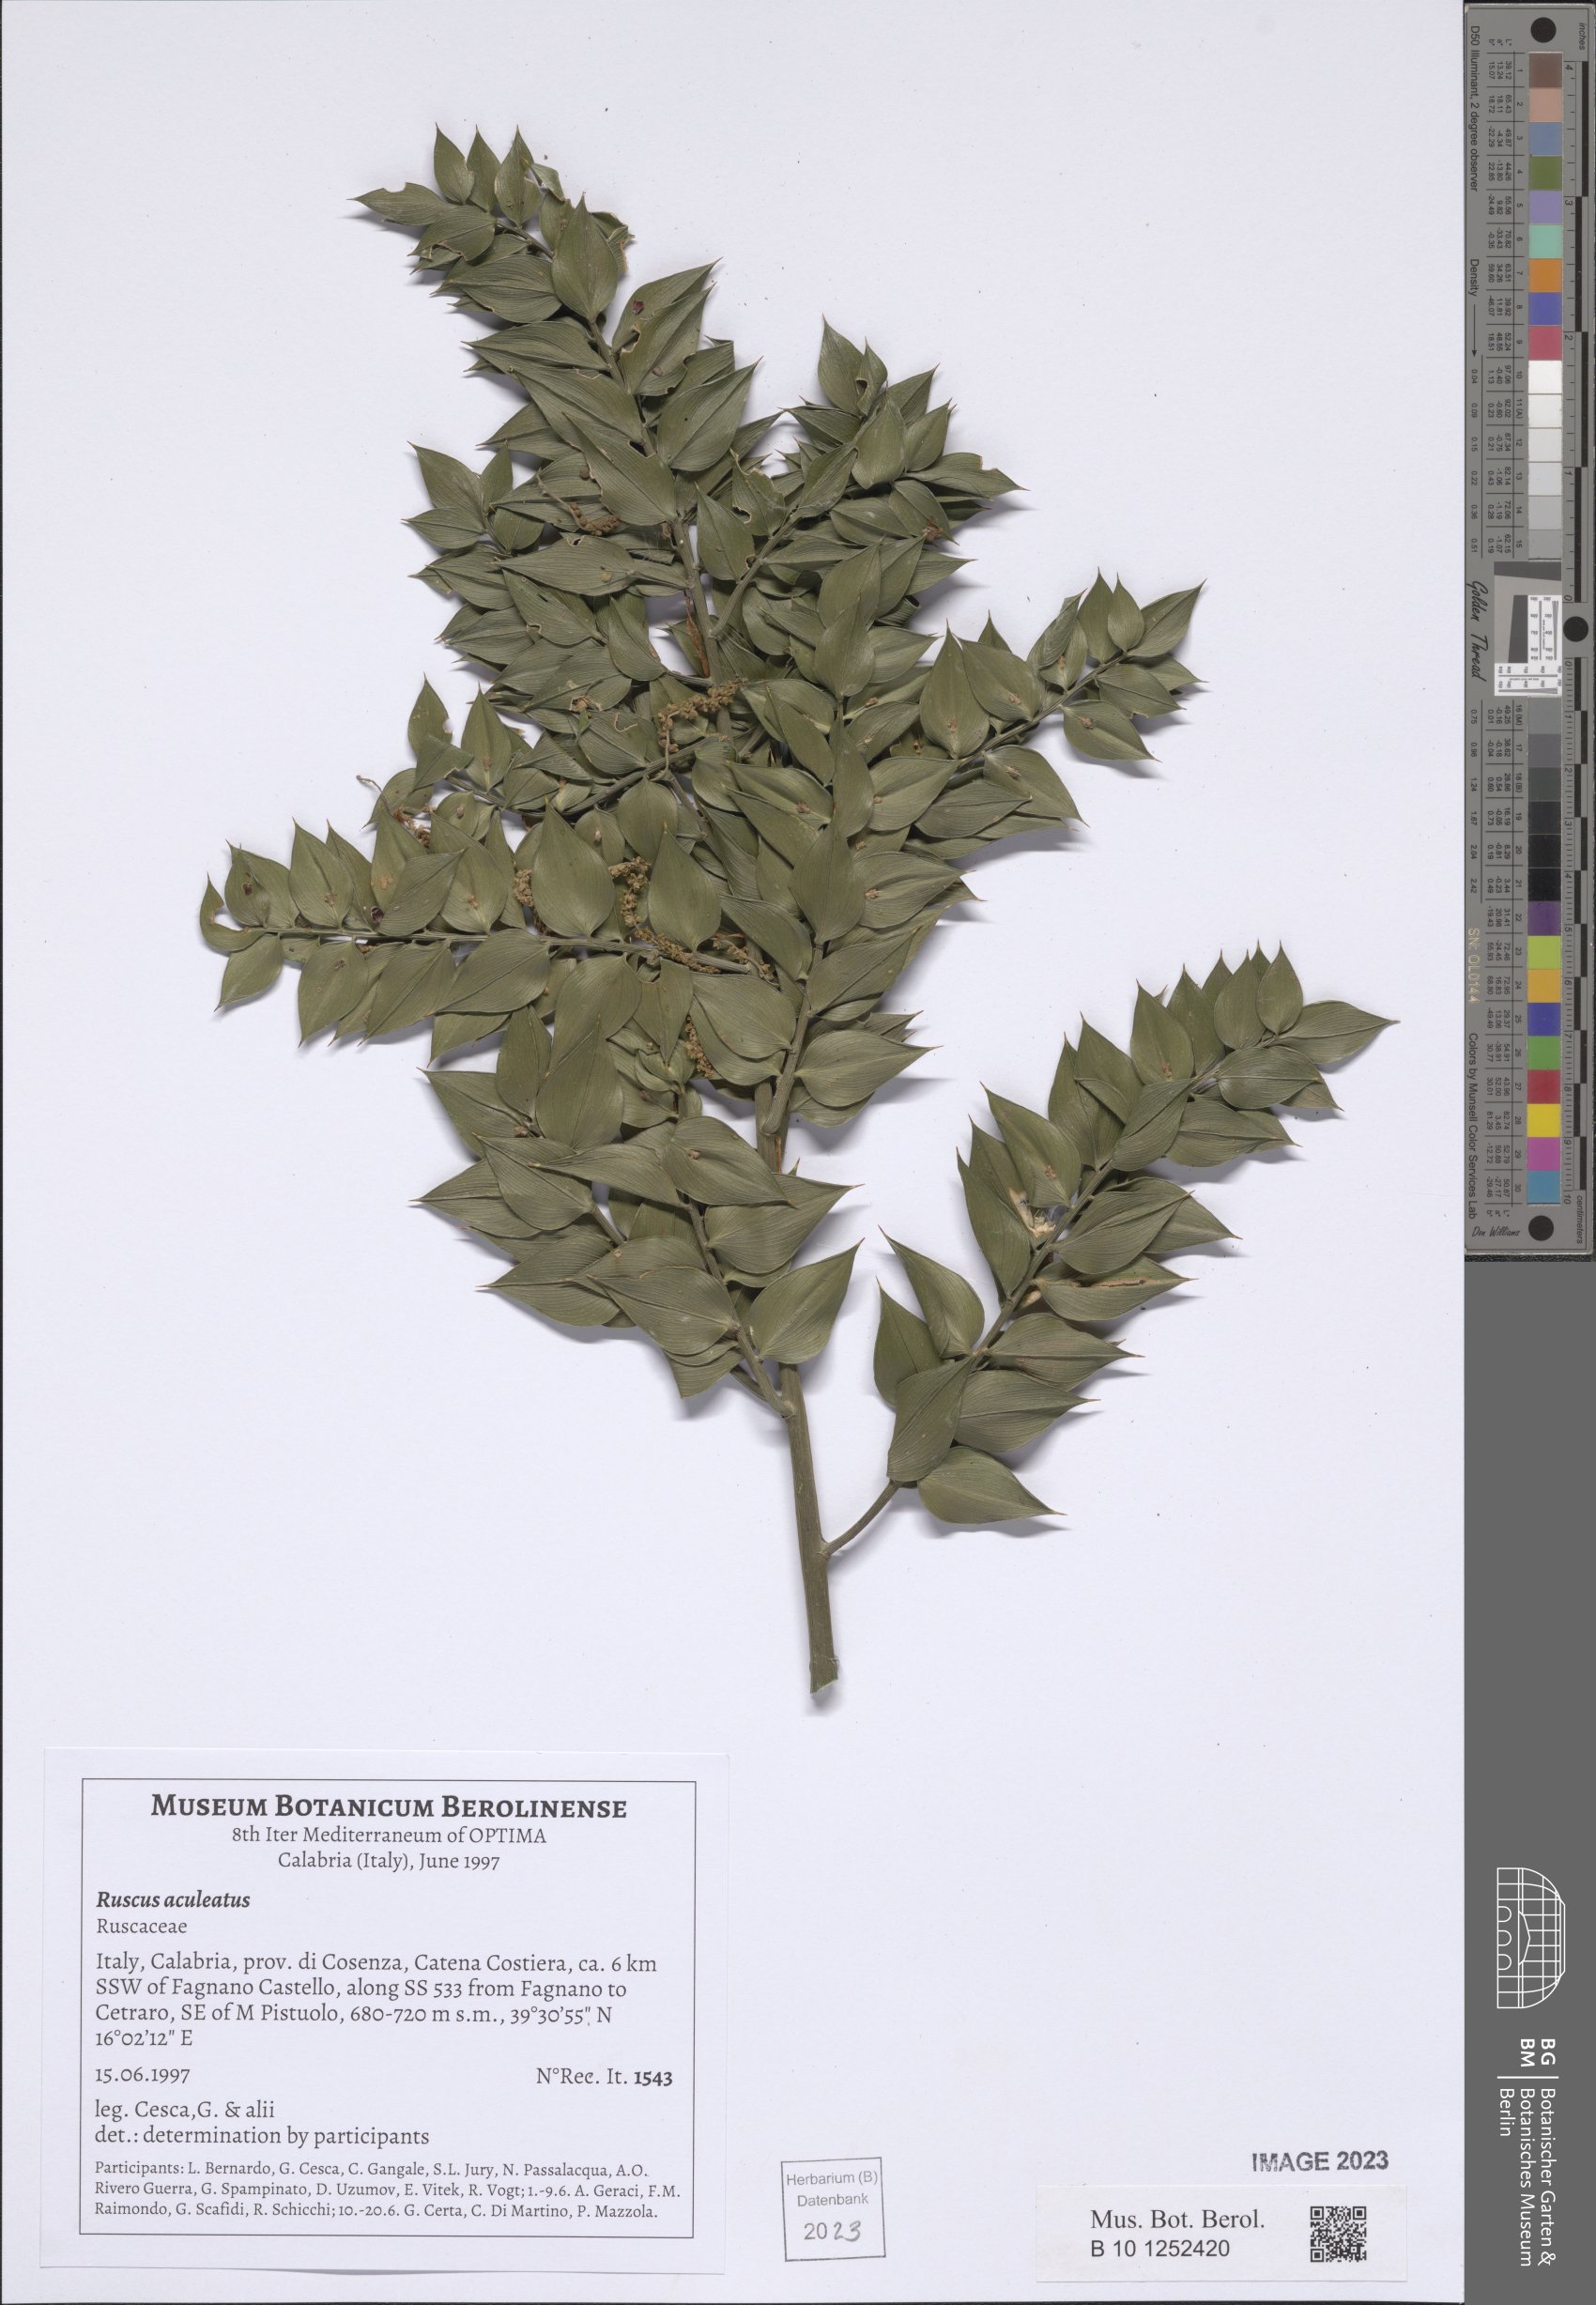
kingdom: Plantae
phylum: Tracheophyta
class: Liliopsida
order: Asparagales
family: Asparagaceae
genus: Ruscus
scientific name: Ruscus aculeatus
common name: Butcher's-broom
